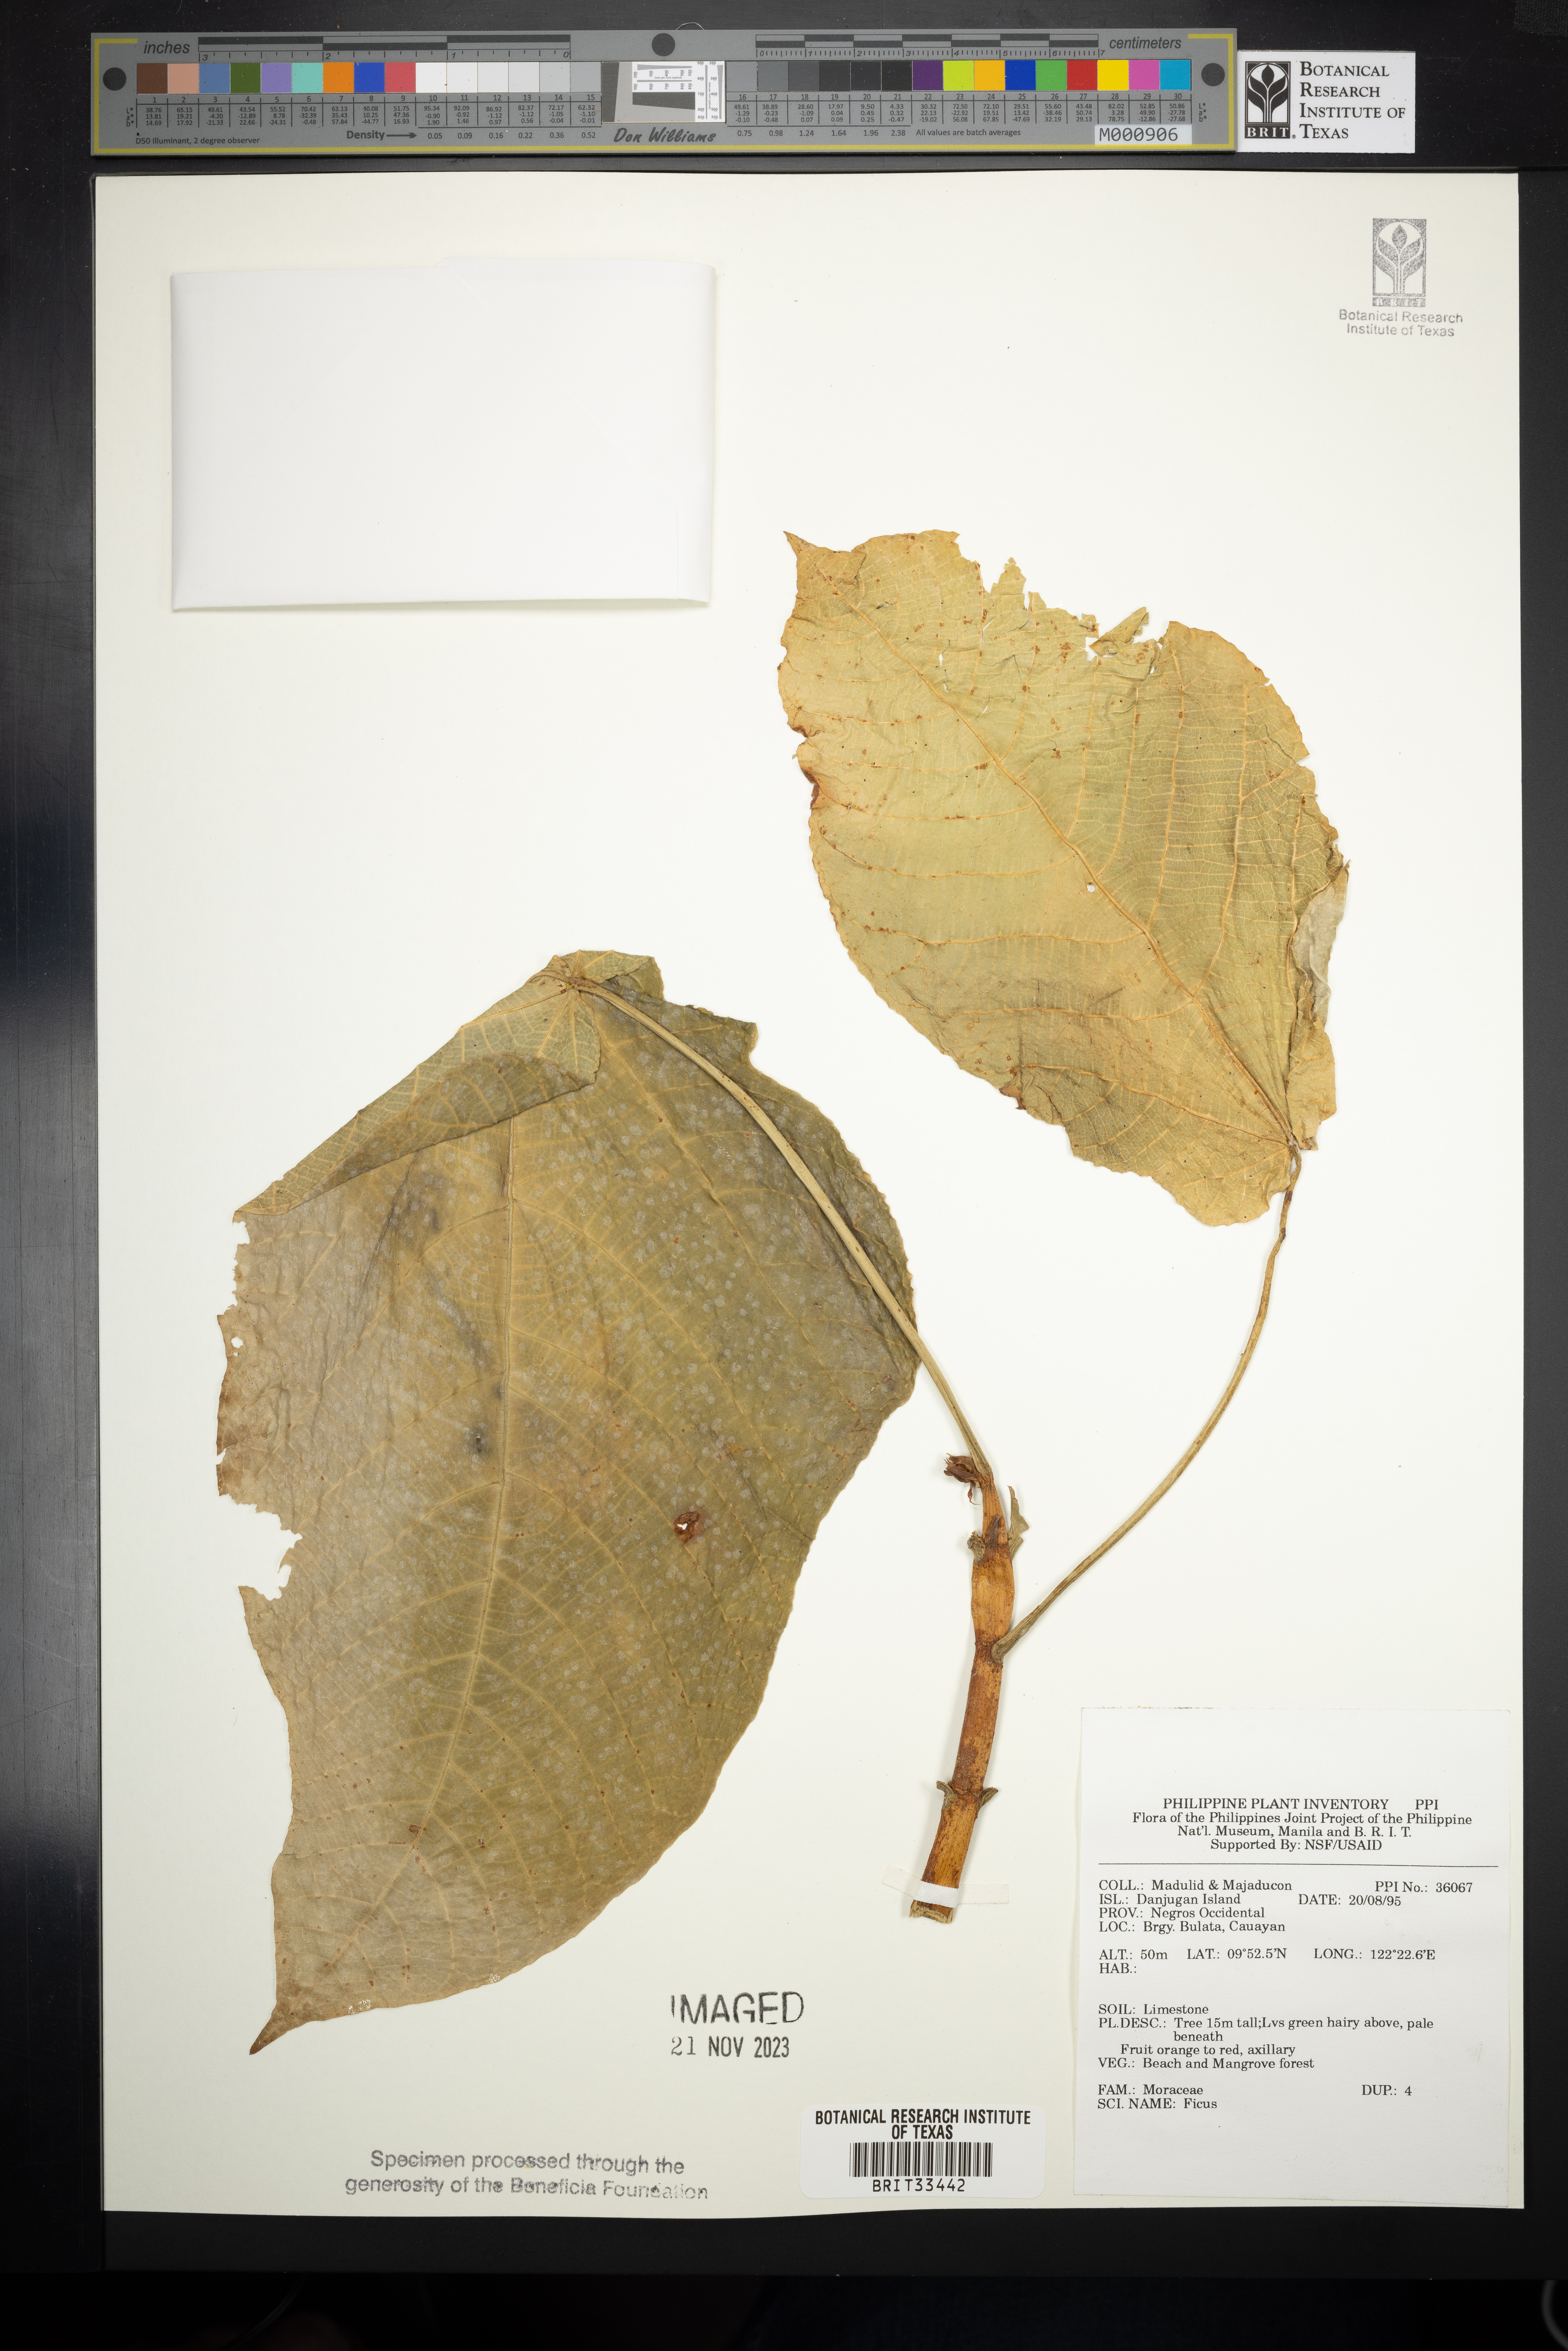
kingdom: Plantae
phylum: Tracheophyta
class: Magnoliopsida
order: Rosales
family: Moraceae
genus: Ficus
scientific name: Ficus
